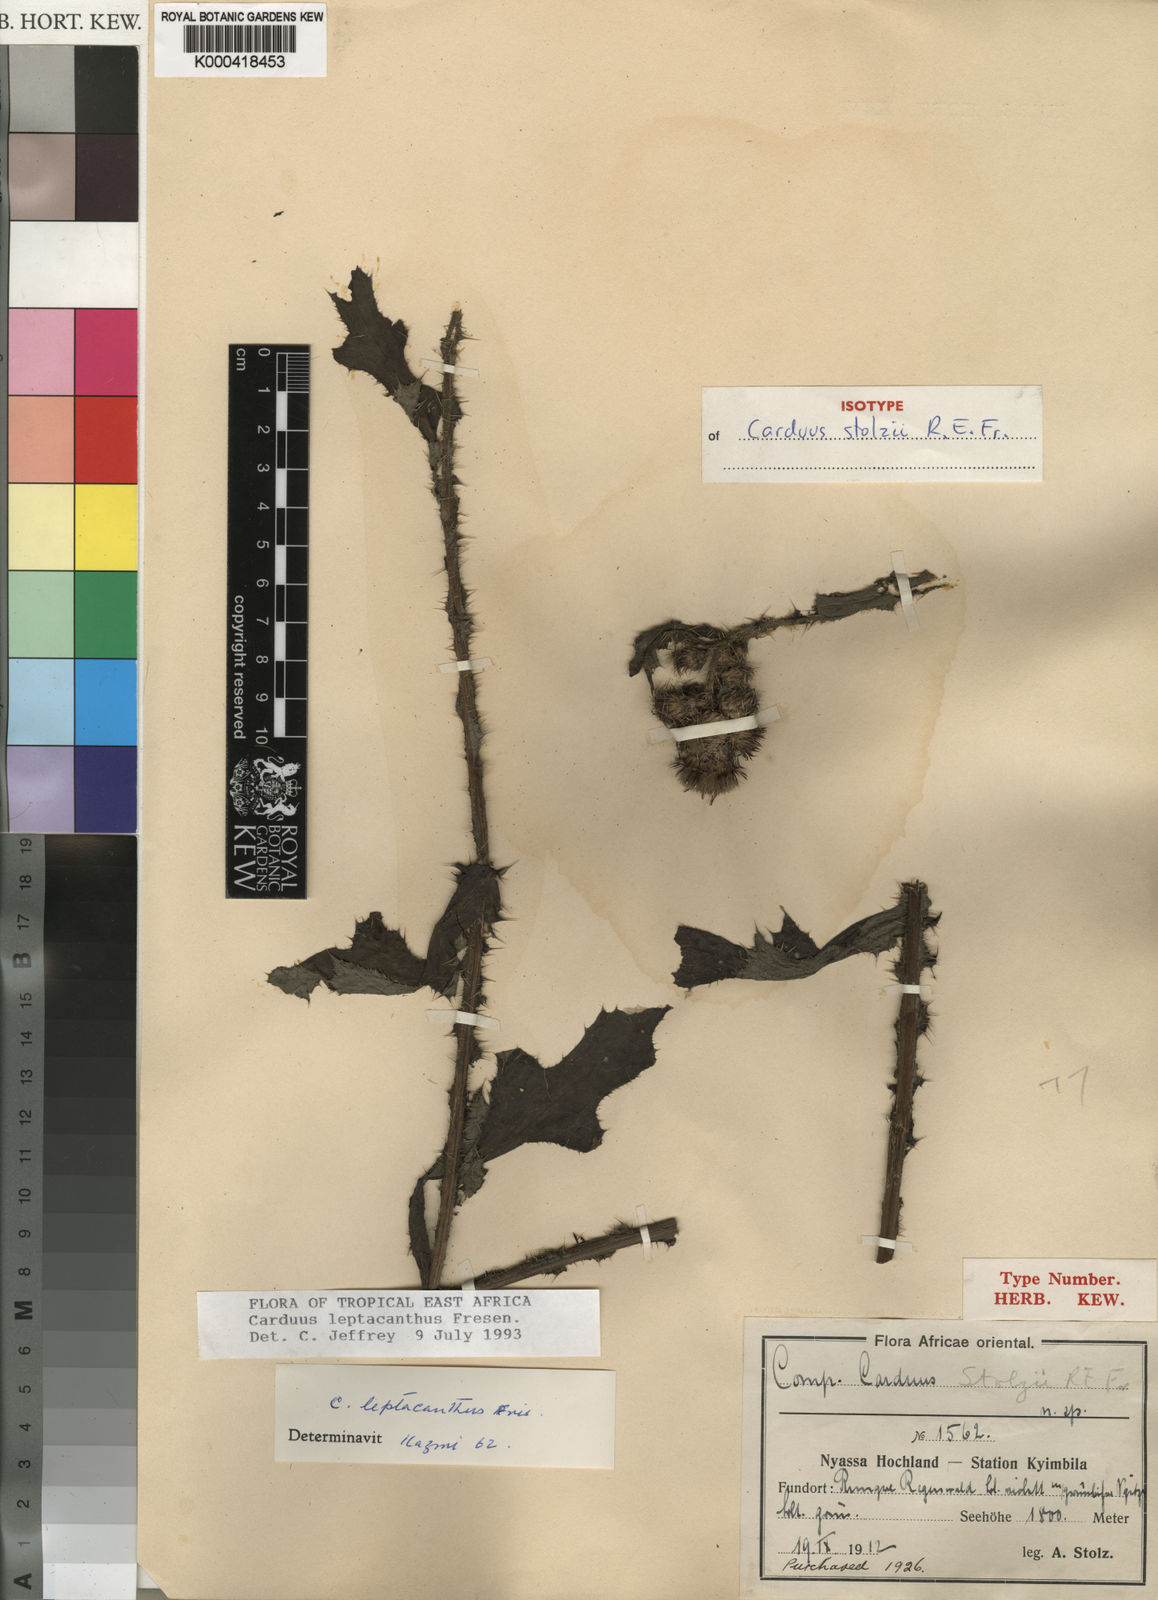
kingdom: Plantae
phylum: Tracheophyta
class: Magnoliopsida
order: Asterales
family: Asteraceae
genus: Carduus
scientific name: Carduus leptacanthus
